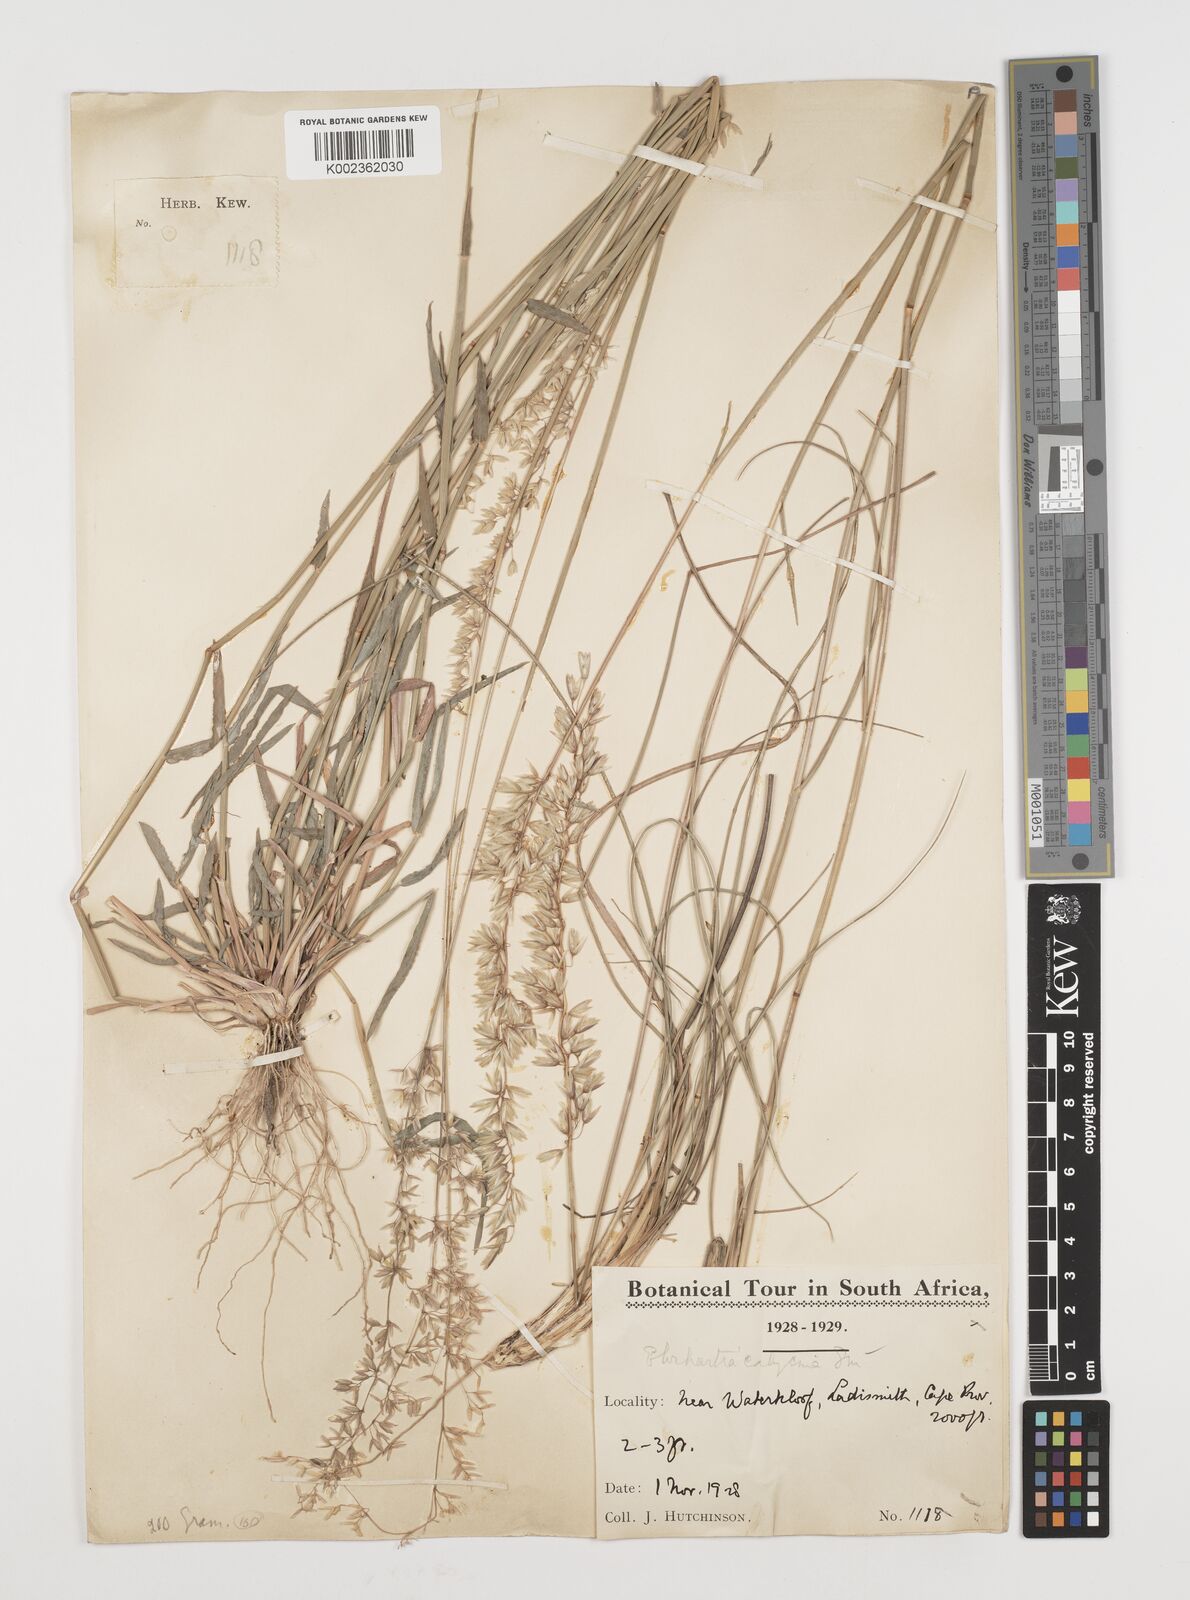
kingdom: Plantae
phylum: Tracheophyta
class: Liliopsida
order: Poales
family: Poaceae
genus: Ehrharta
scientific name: Ehrharta calycina
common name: Perennial veldtgrass
